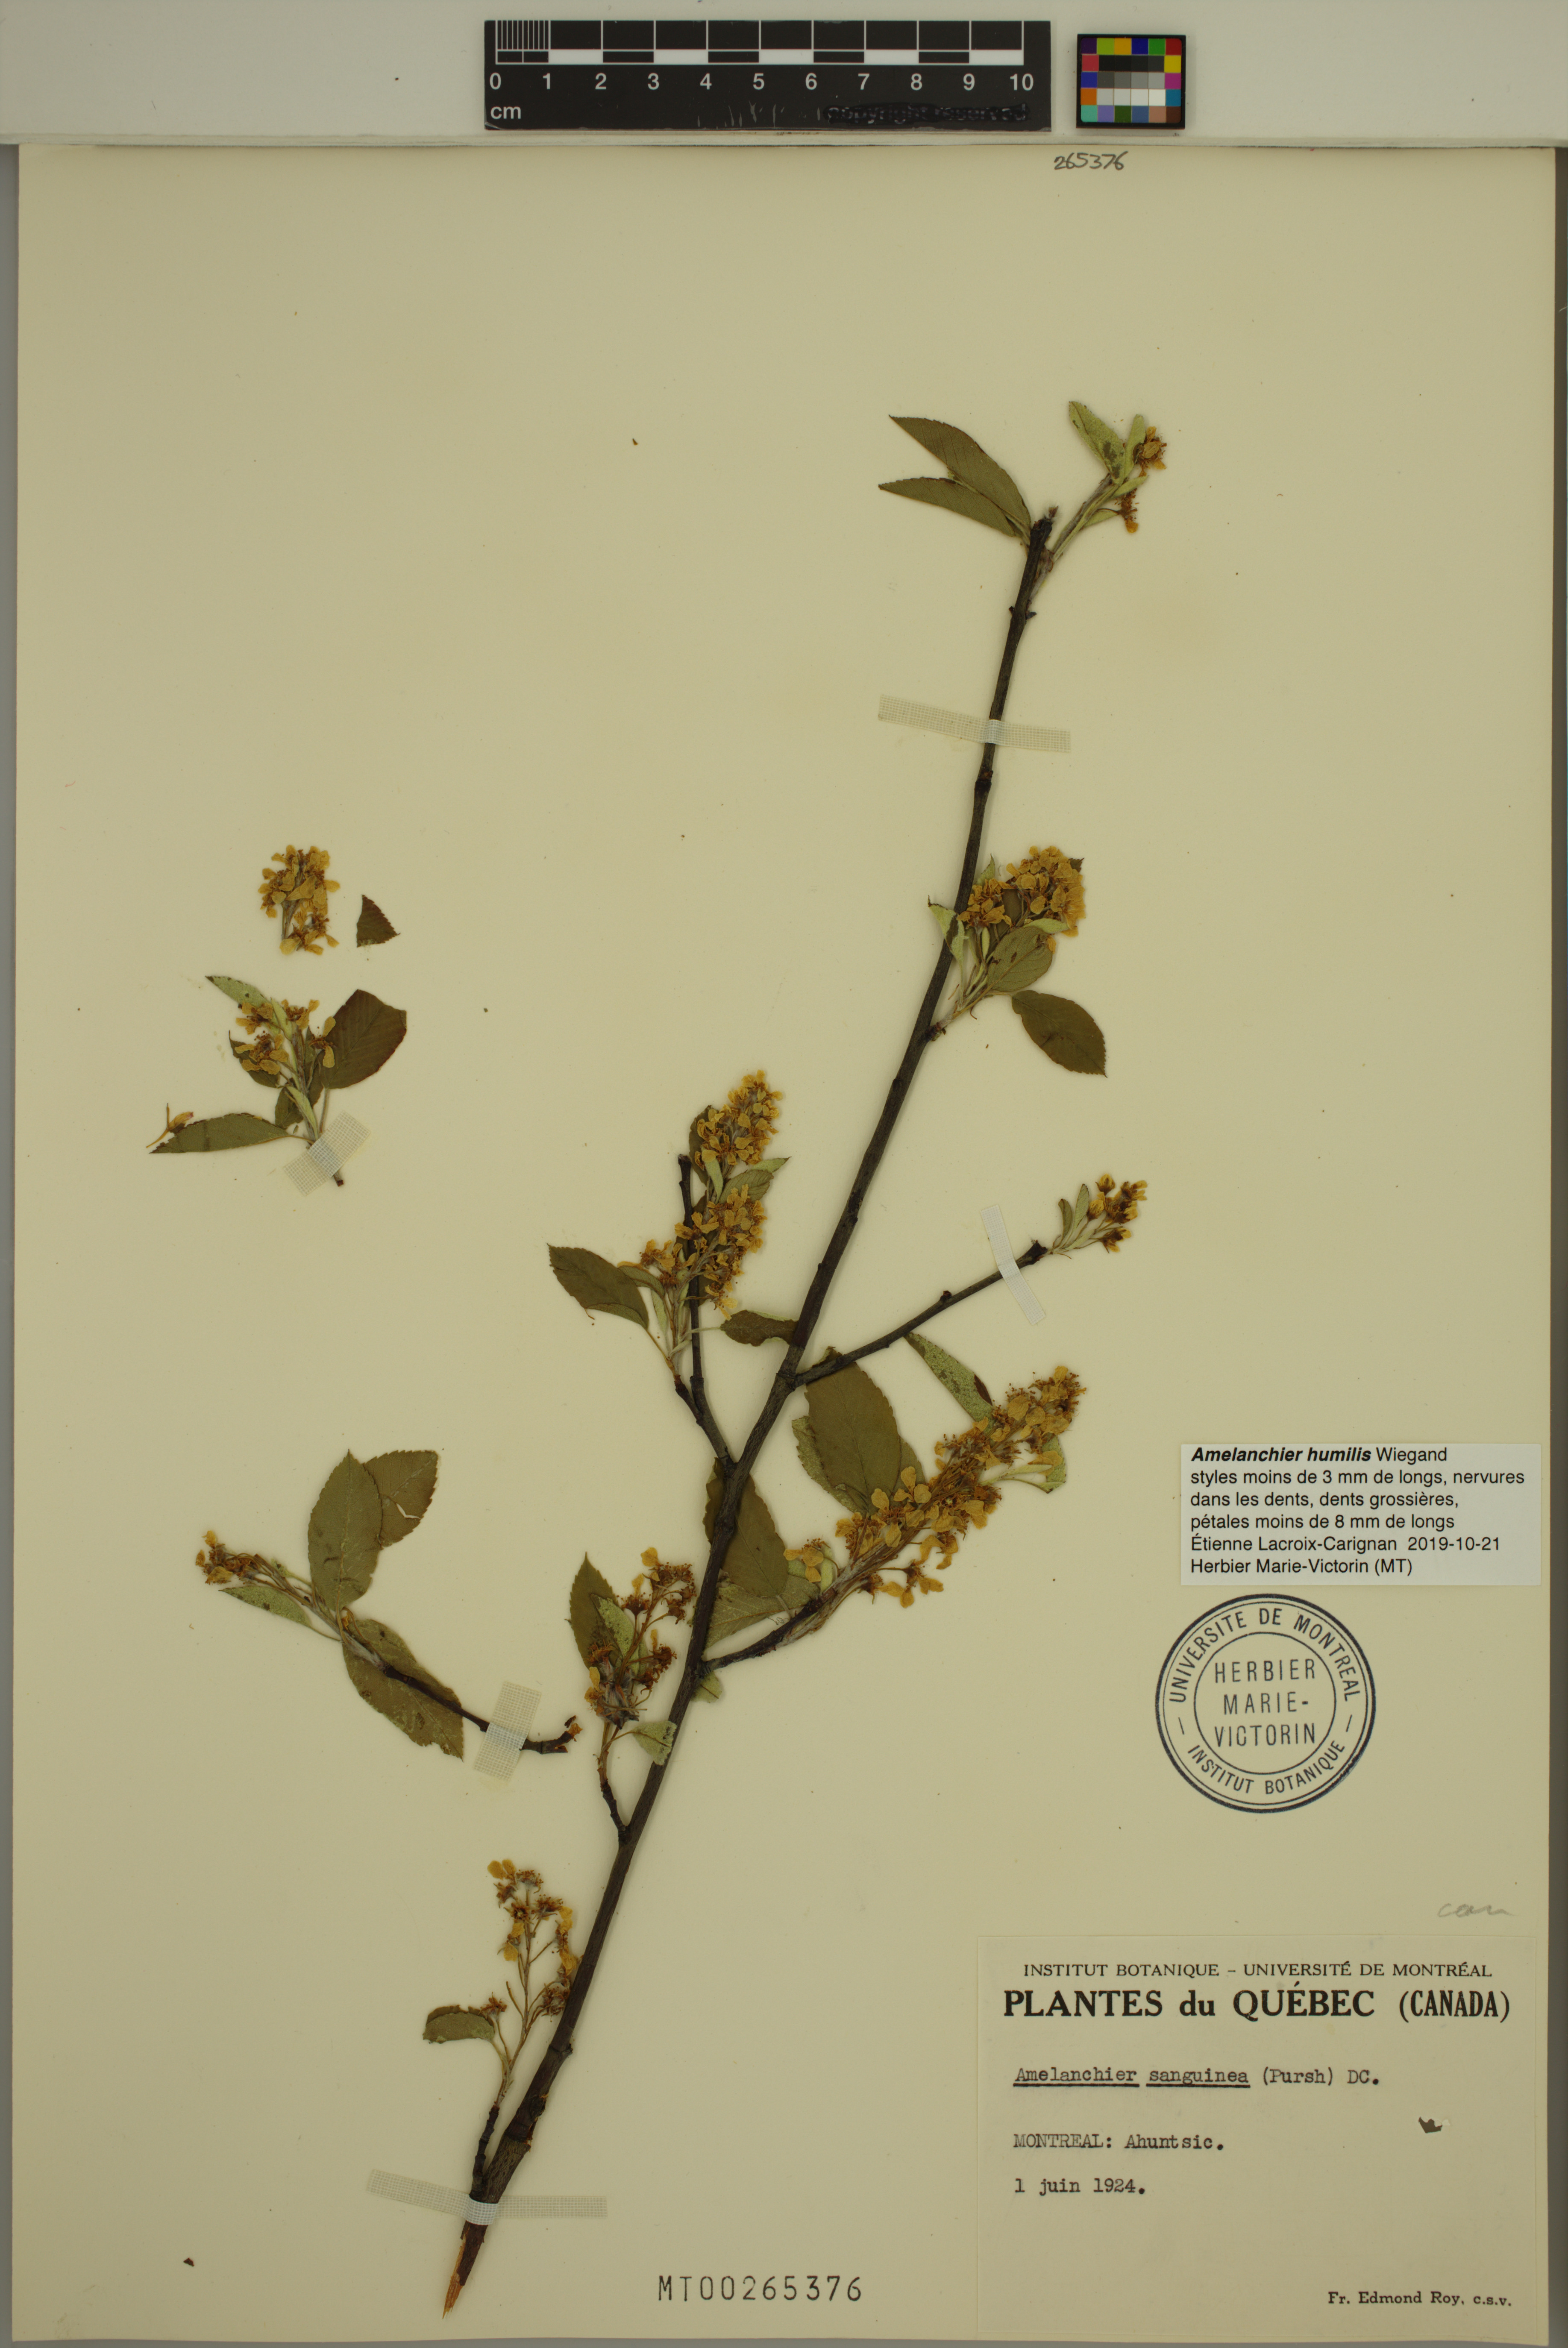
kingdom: Plantae
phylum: Tracheophyta
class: Magnoliopsida
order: Rosales
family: Rosaceae
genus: Amelanchier
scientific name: Amelanchier humilis
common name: Low juneberry
